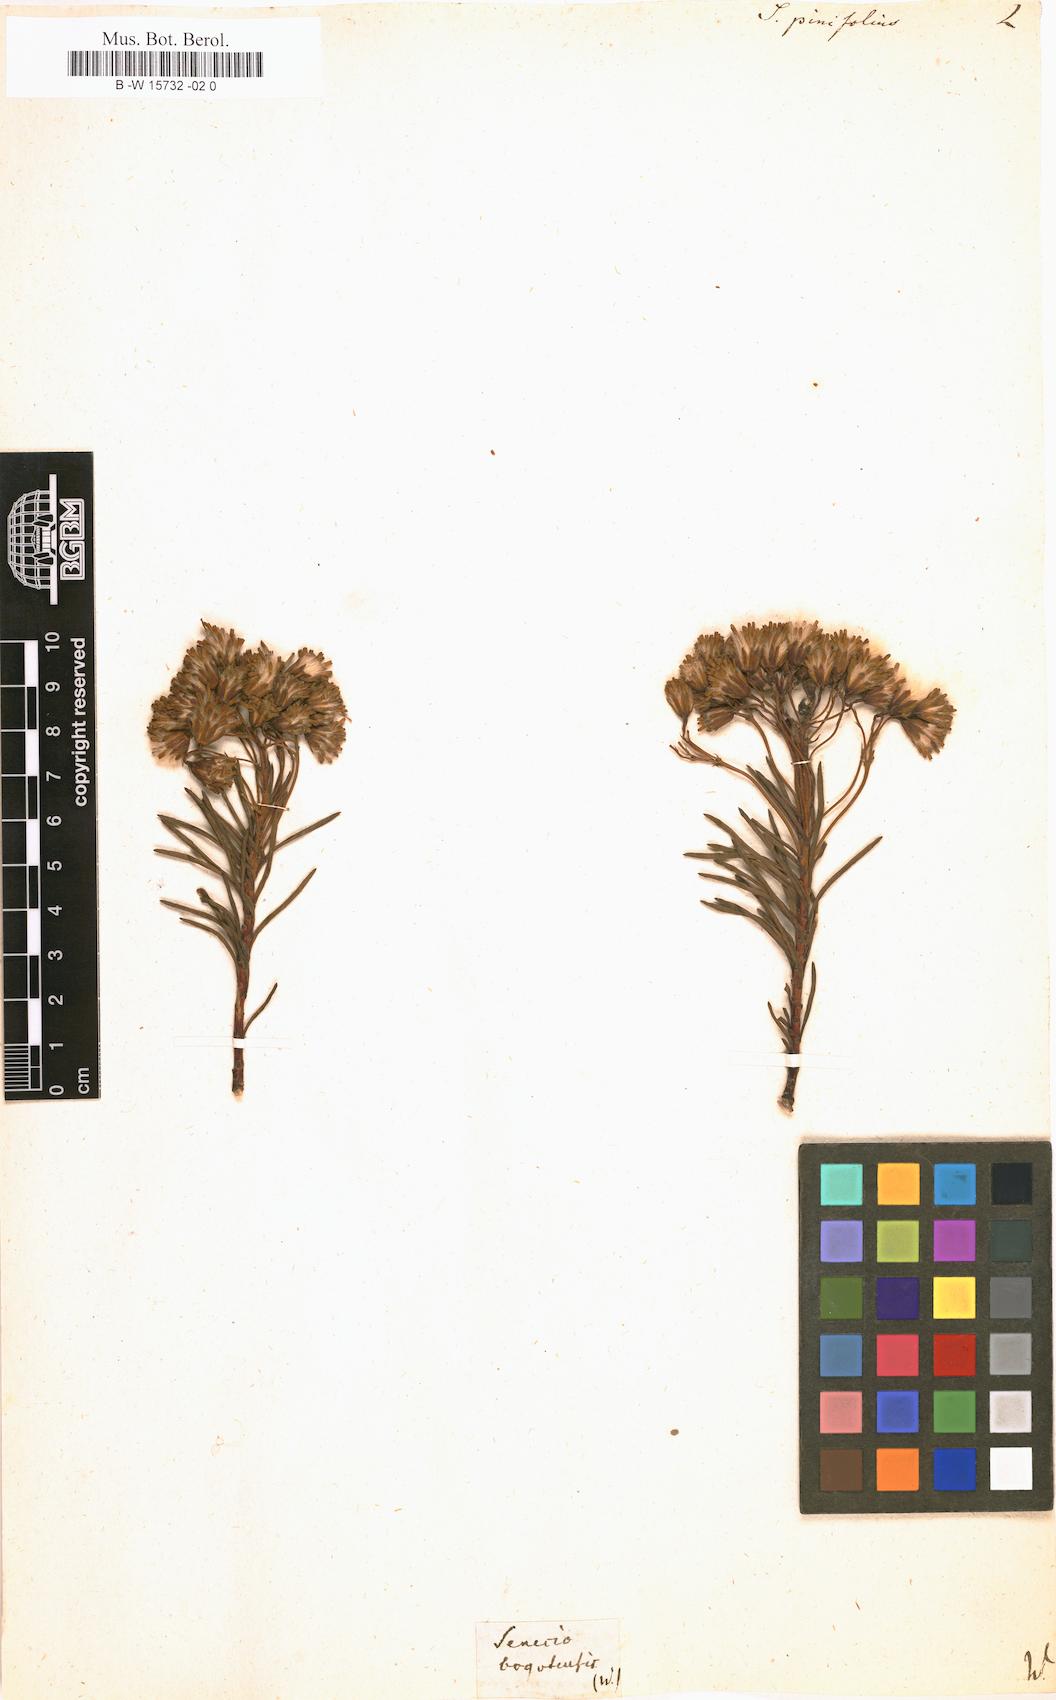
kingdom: Plantae
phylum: Tracheophyta
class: Magnoliopsida
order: Asterales
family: Asteraceae
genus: Senecio
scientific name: Senecio pinifolius
